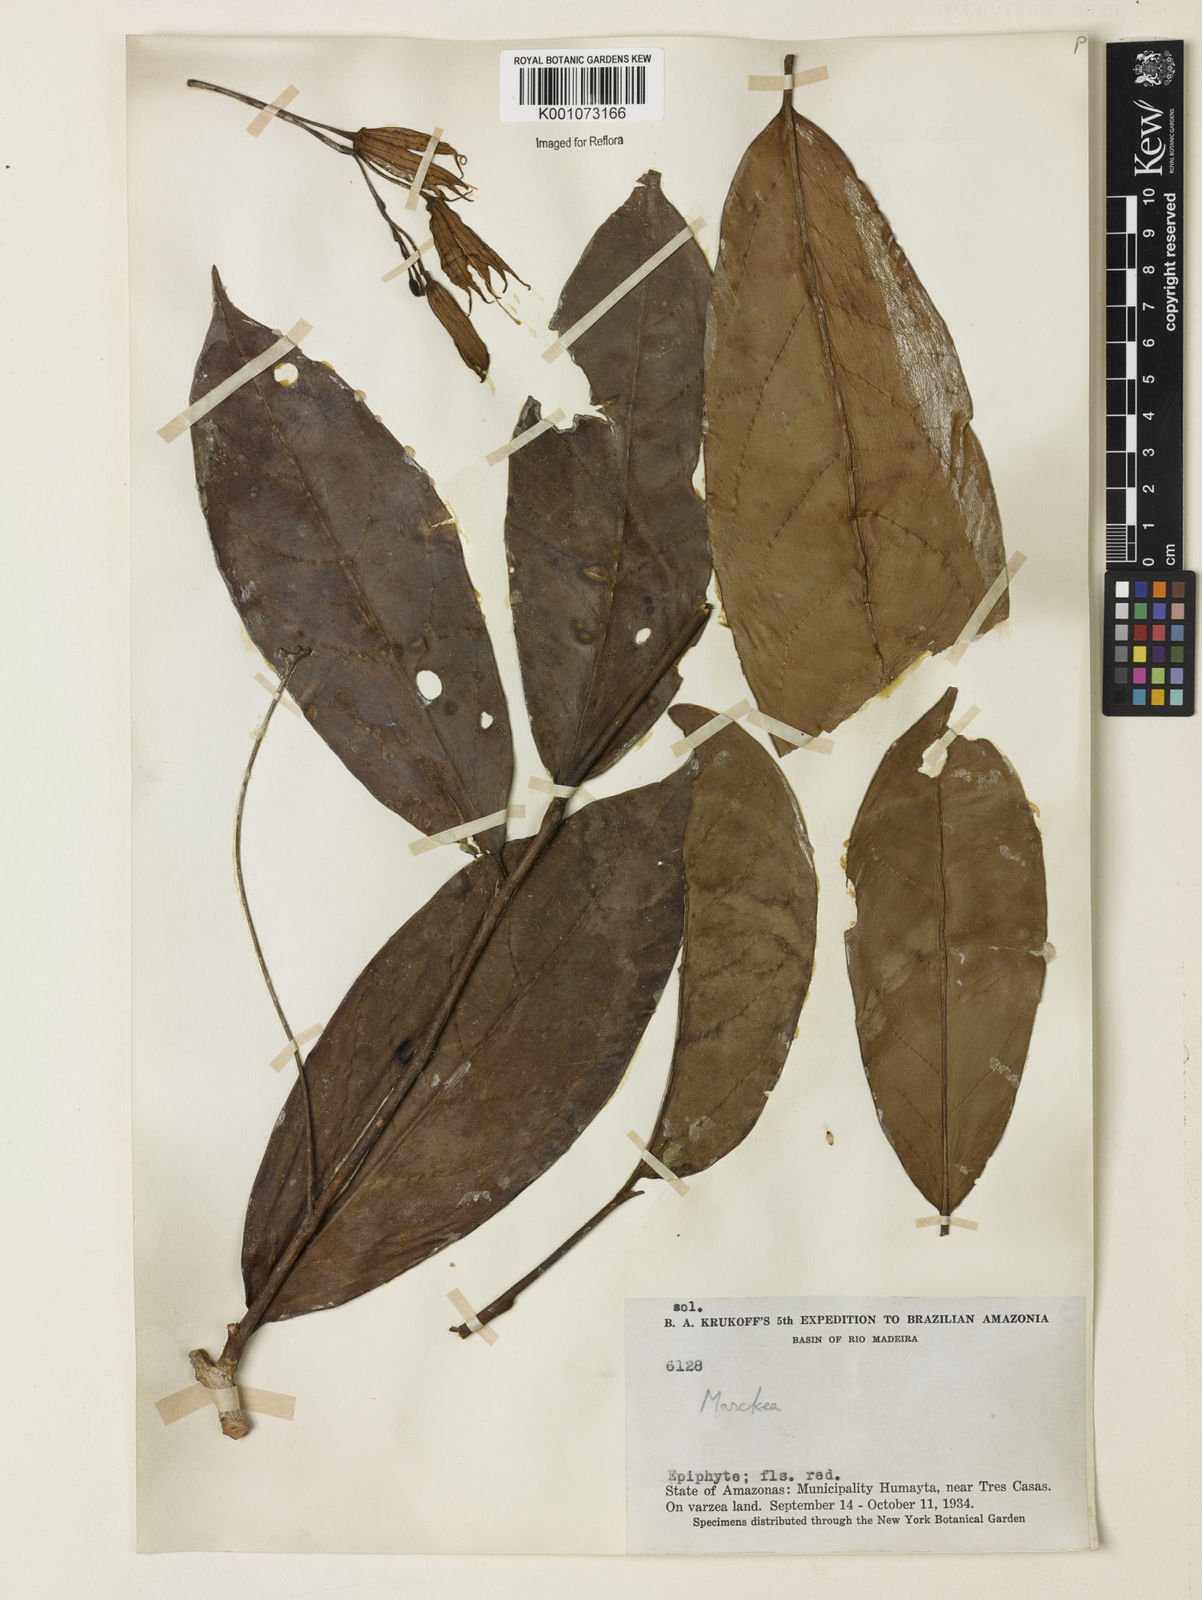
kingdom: Plantae
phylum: Tracheophyta
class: Magnoliopsida
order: Solanales
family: Solanaceae
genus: Markea
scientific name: Markea coccinea
